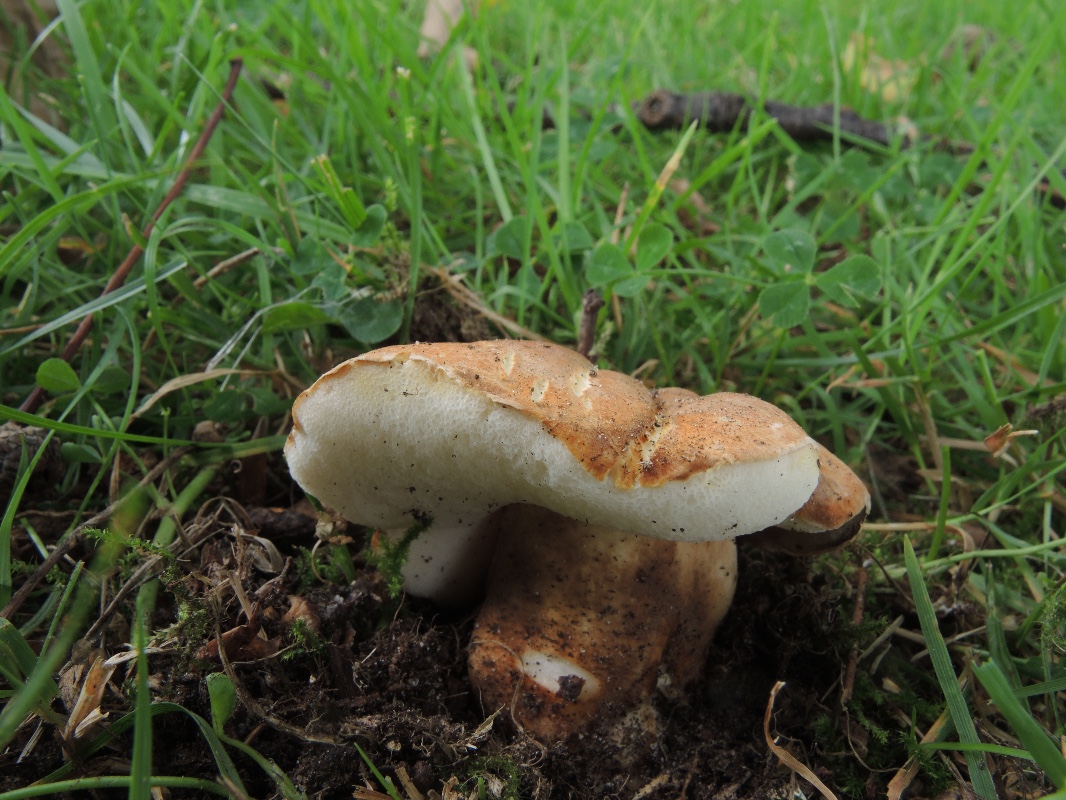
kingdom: Fungi
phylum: Basidiomycota
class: Agaricomycetes
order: Boletales
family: Gyroporaceae
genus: Gyroporus
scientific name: Gyroporus castaneus
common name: kastanie-kammerrørhat
